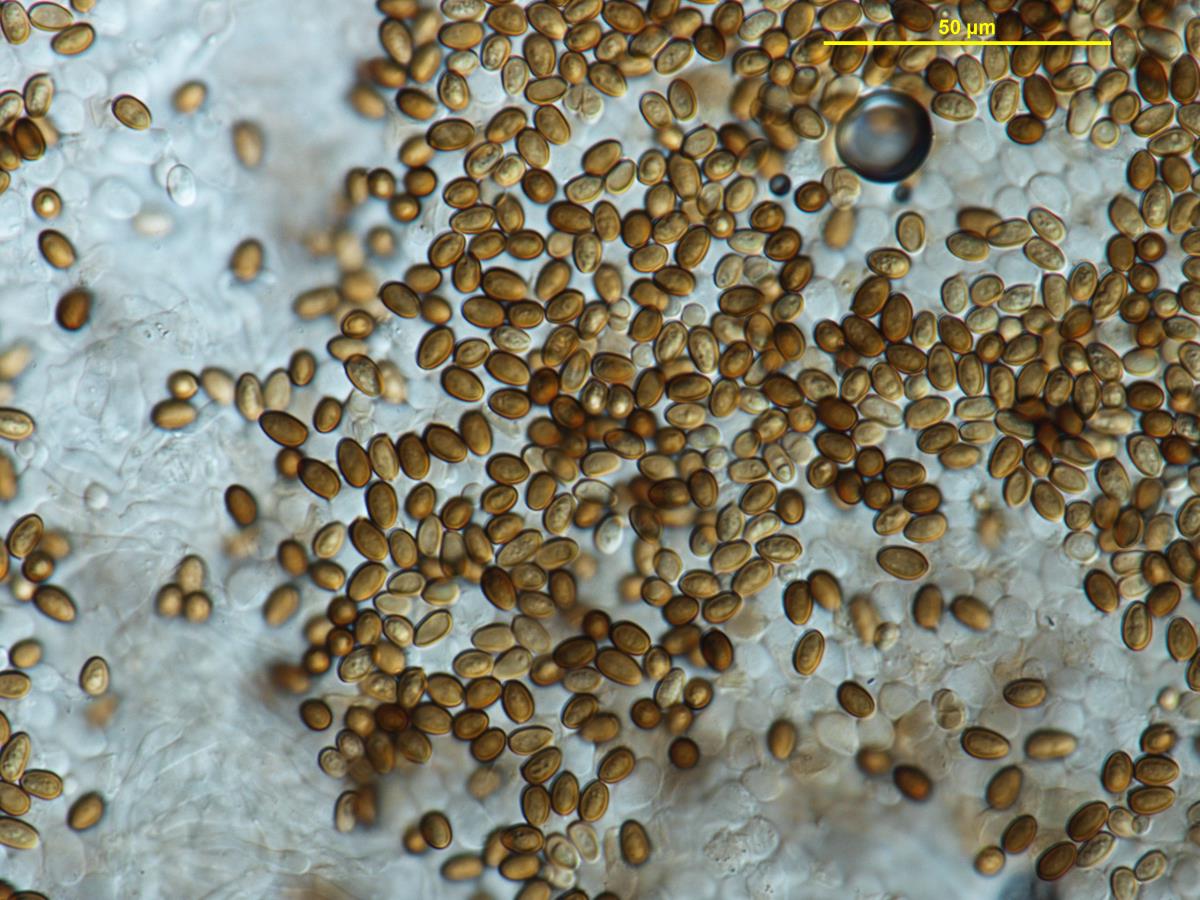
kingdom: Fungi
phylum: Basidiomycota
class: Agaricomycetes
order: Agaricales
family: Agaricaceae
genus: Agaricus
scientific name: Agaricus moellerianus
